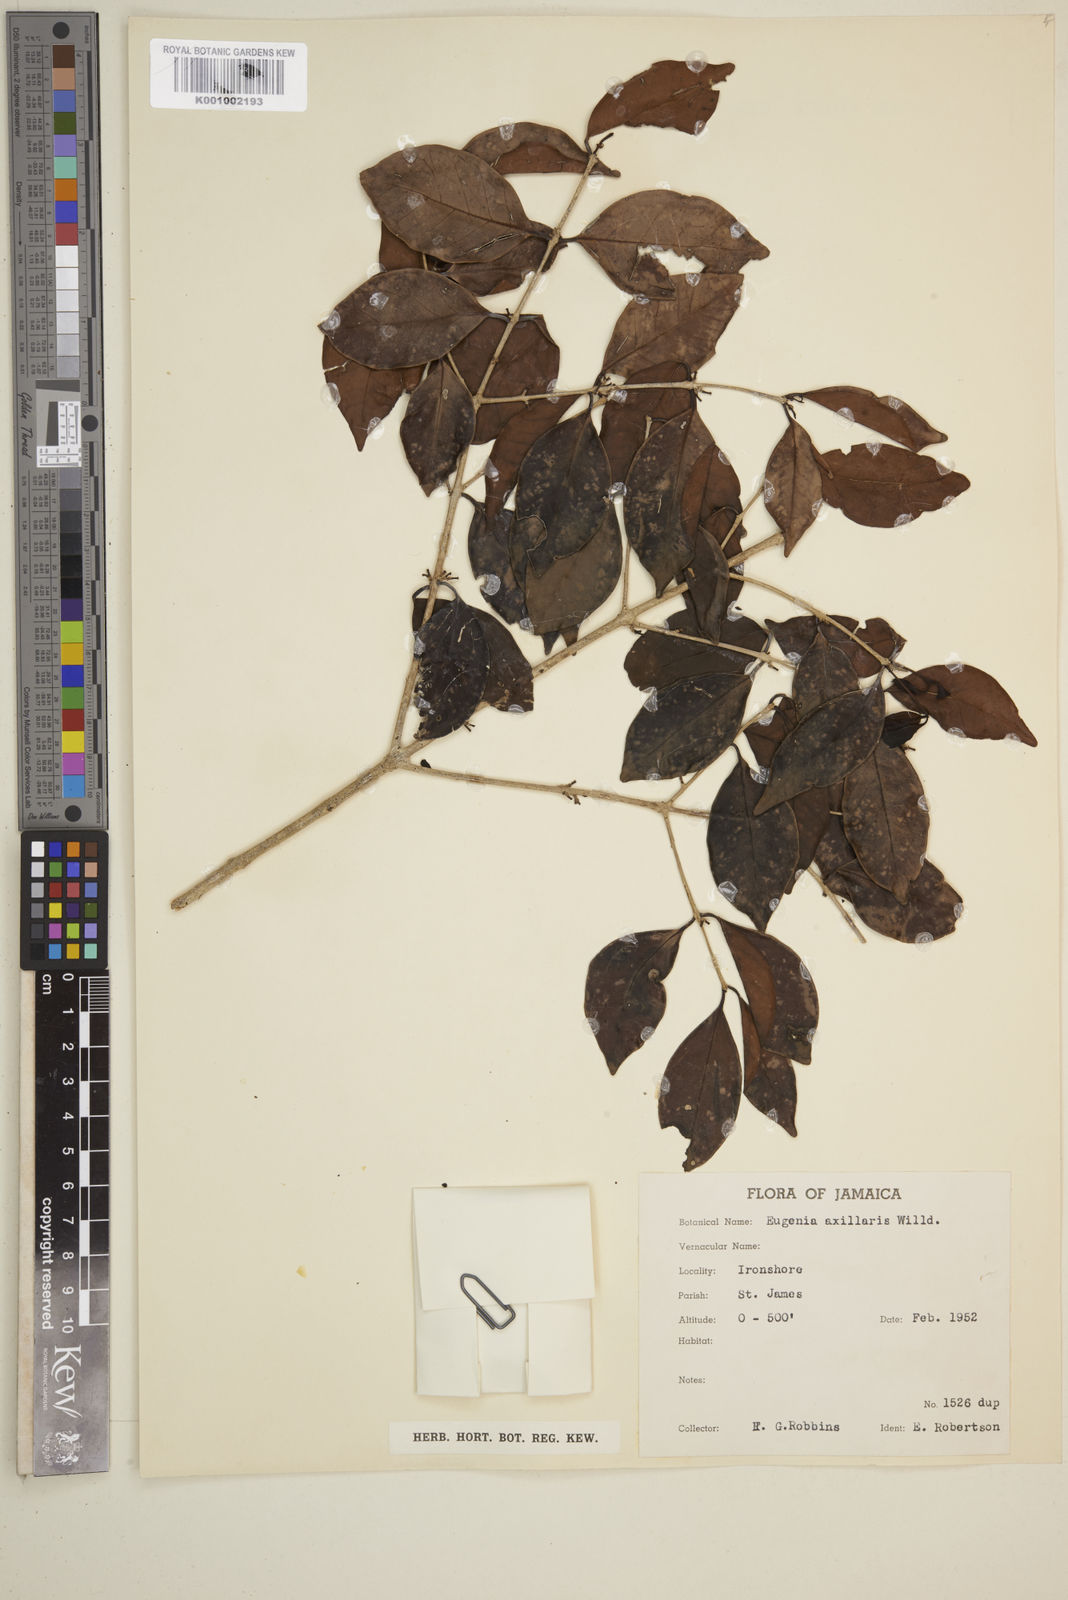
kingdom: Plantae
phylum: Tracheophyta
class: Magnoliopsida
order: Myrtales
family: Myrtaceae
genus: Eugenia
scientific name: Eugenia axillaris
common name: Choaky berry
